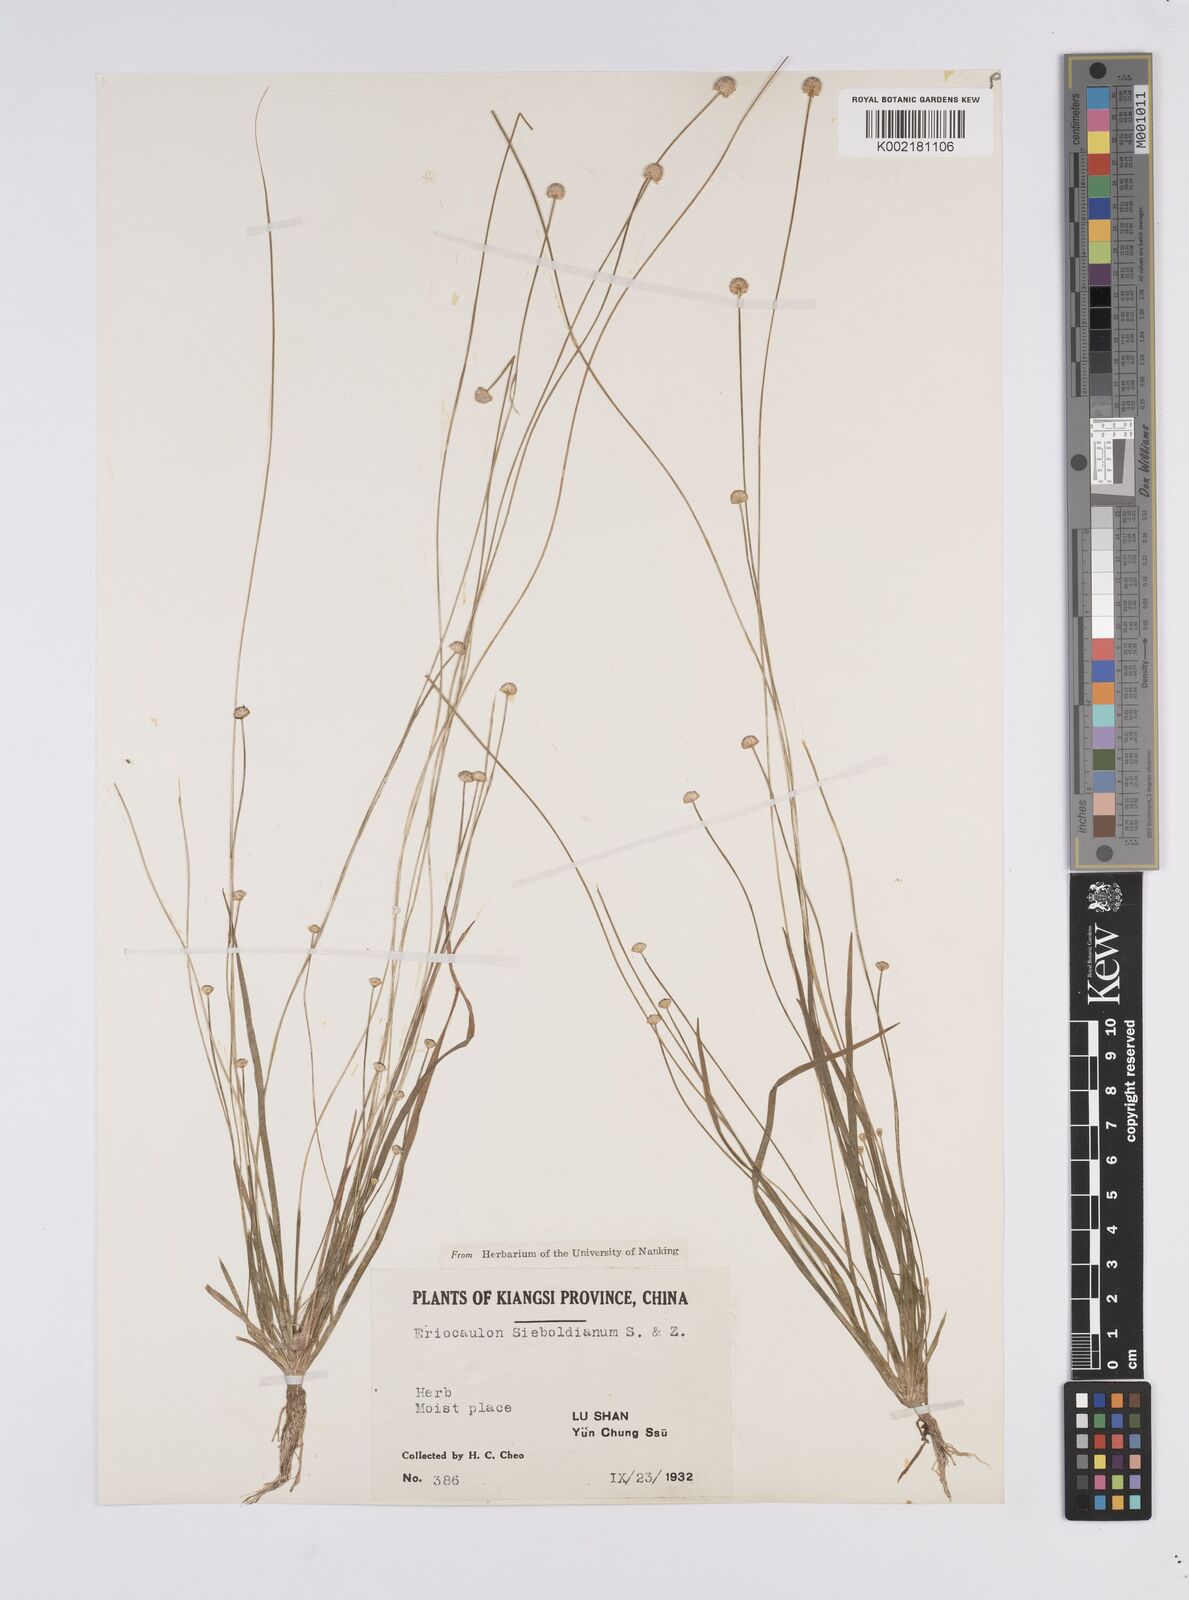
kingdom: Plantae
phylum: Tracheophyta
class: Liliopsida
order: Poales
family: Eriocaulaceae
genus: Eriocaulon
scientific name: Eriocaulon cinereum
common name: Ashy pipewort
